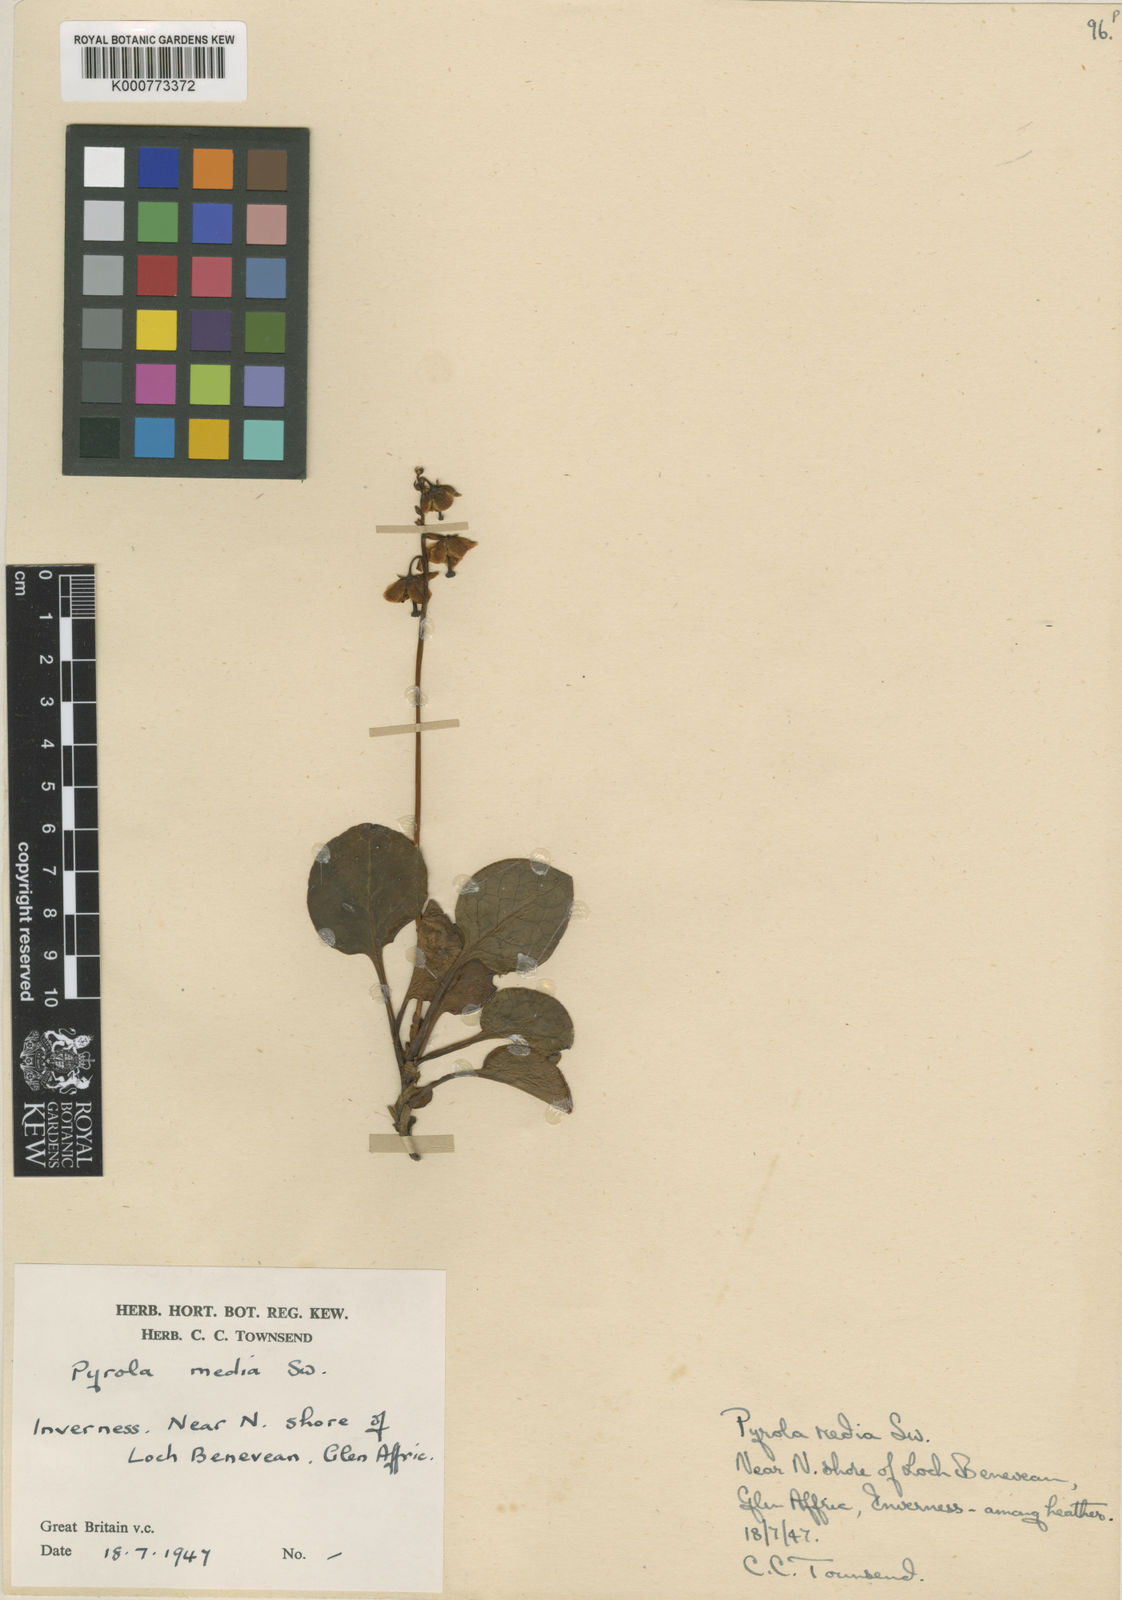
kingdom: Plantae
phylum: Tracheophyta
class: Magnoliopsida
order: Ericales
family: Ericaceae
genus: Pyrola
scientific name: Pyrola media
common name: Intermediate wintergreen
